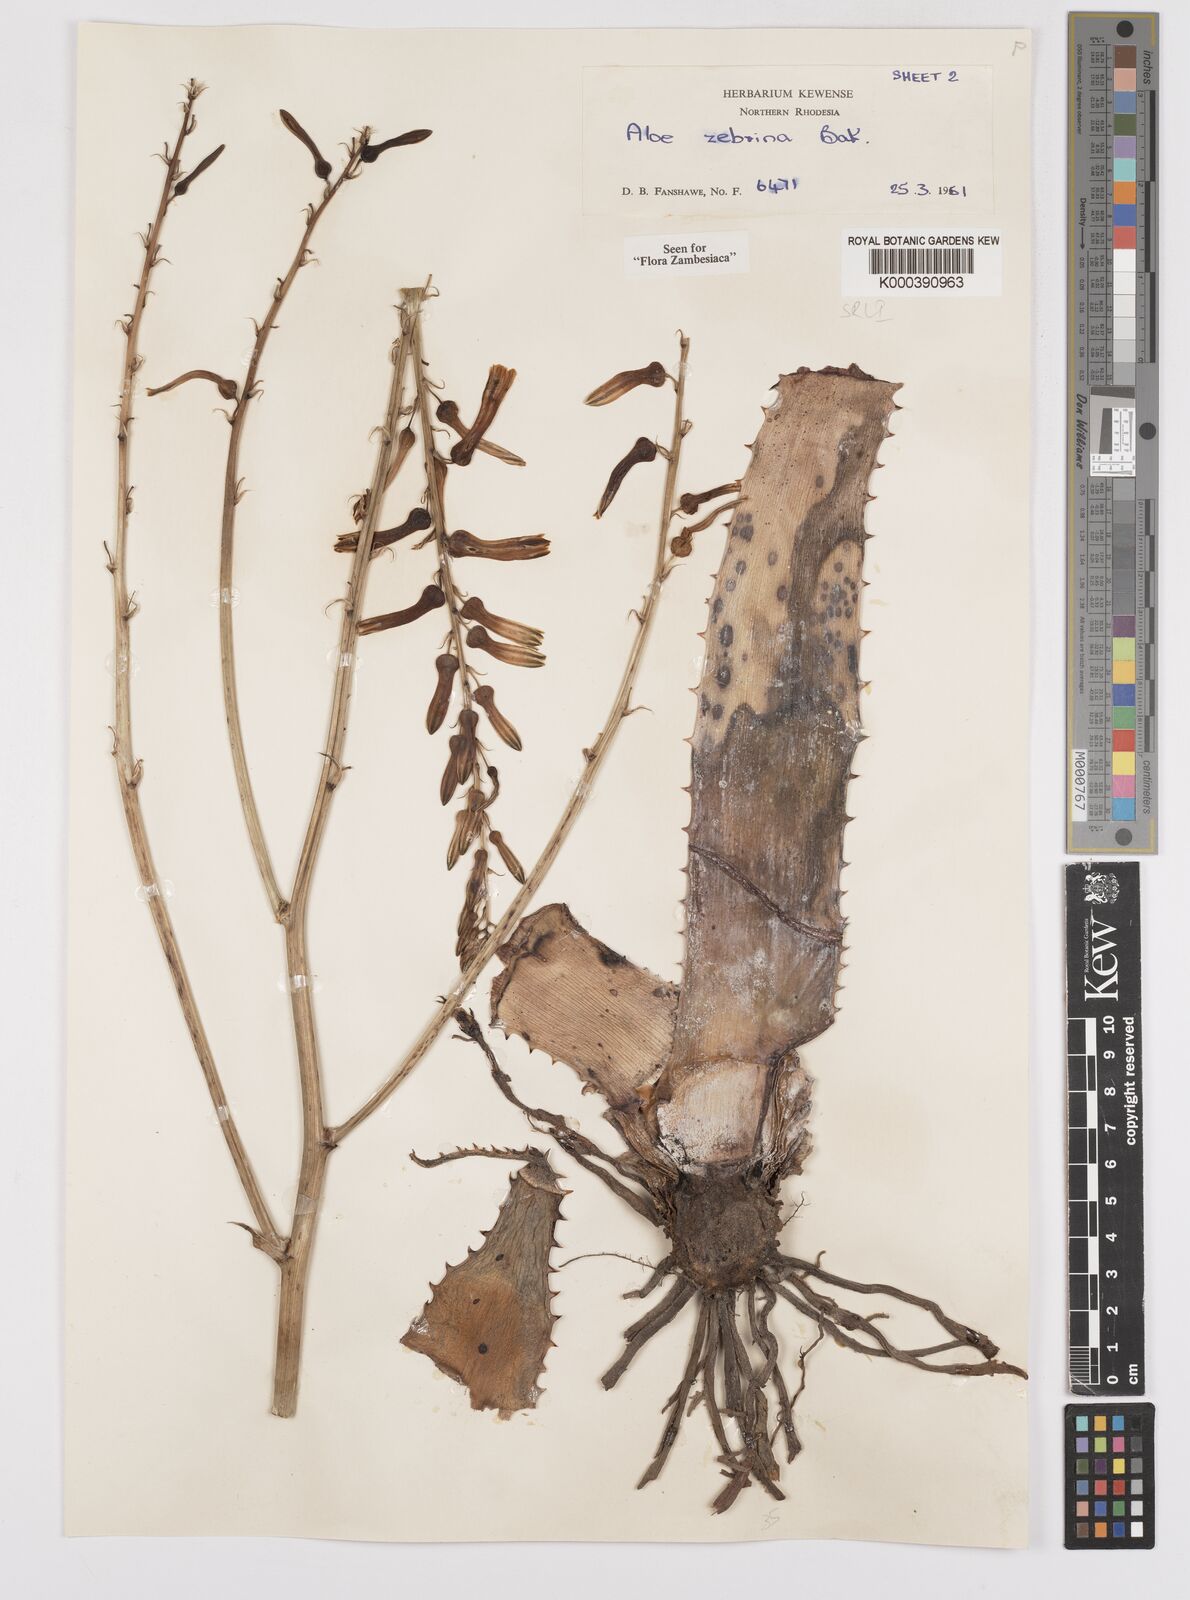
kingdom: Plantae
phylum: Tracheophyta
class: Liliopsida
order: Asparagales
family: Asphodelaceae
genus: Aloe
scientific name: Aloe zebrina
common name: Zebra-leaf aloe
